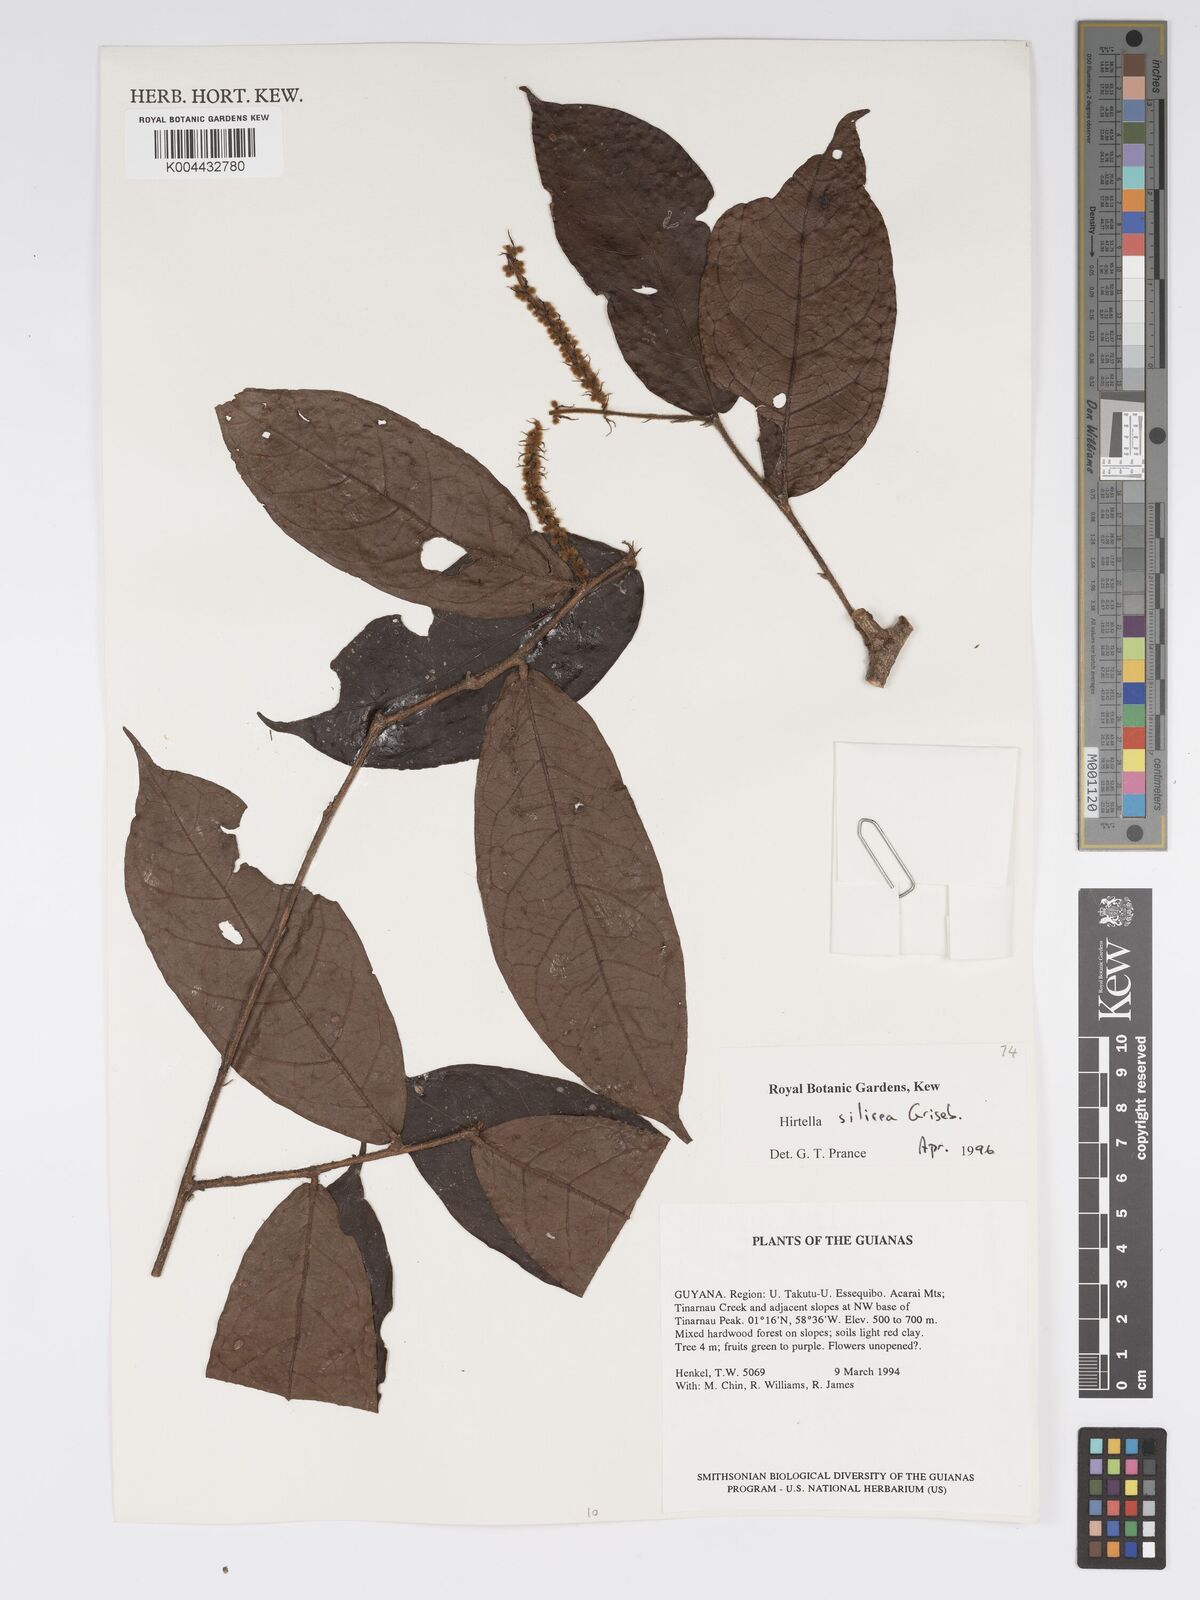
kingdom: Plantae
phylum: Tracheophyta
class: Magnoliopsida
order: Malpighiales
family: Chrysobalanaceae
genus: Hirtella
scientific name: Hirtella silicea
